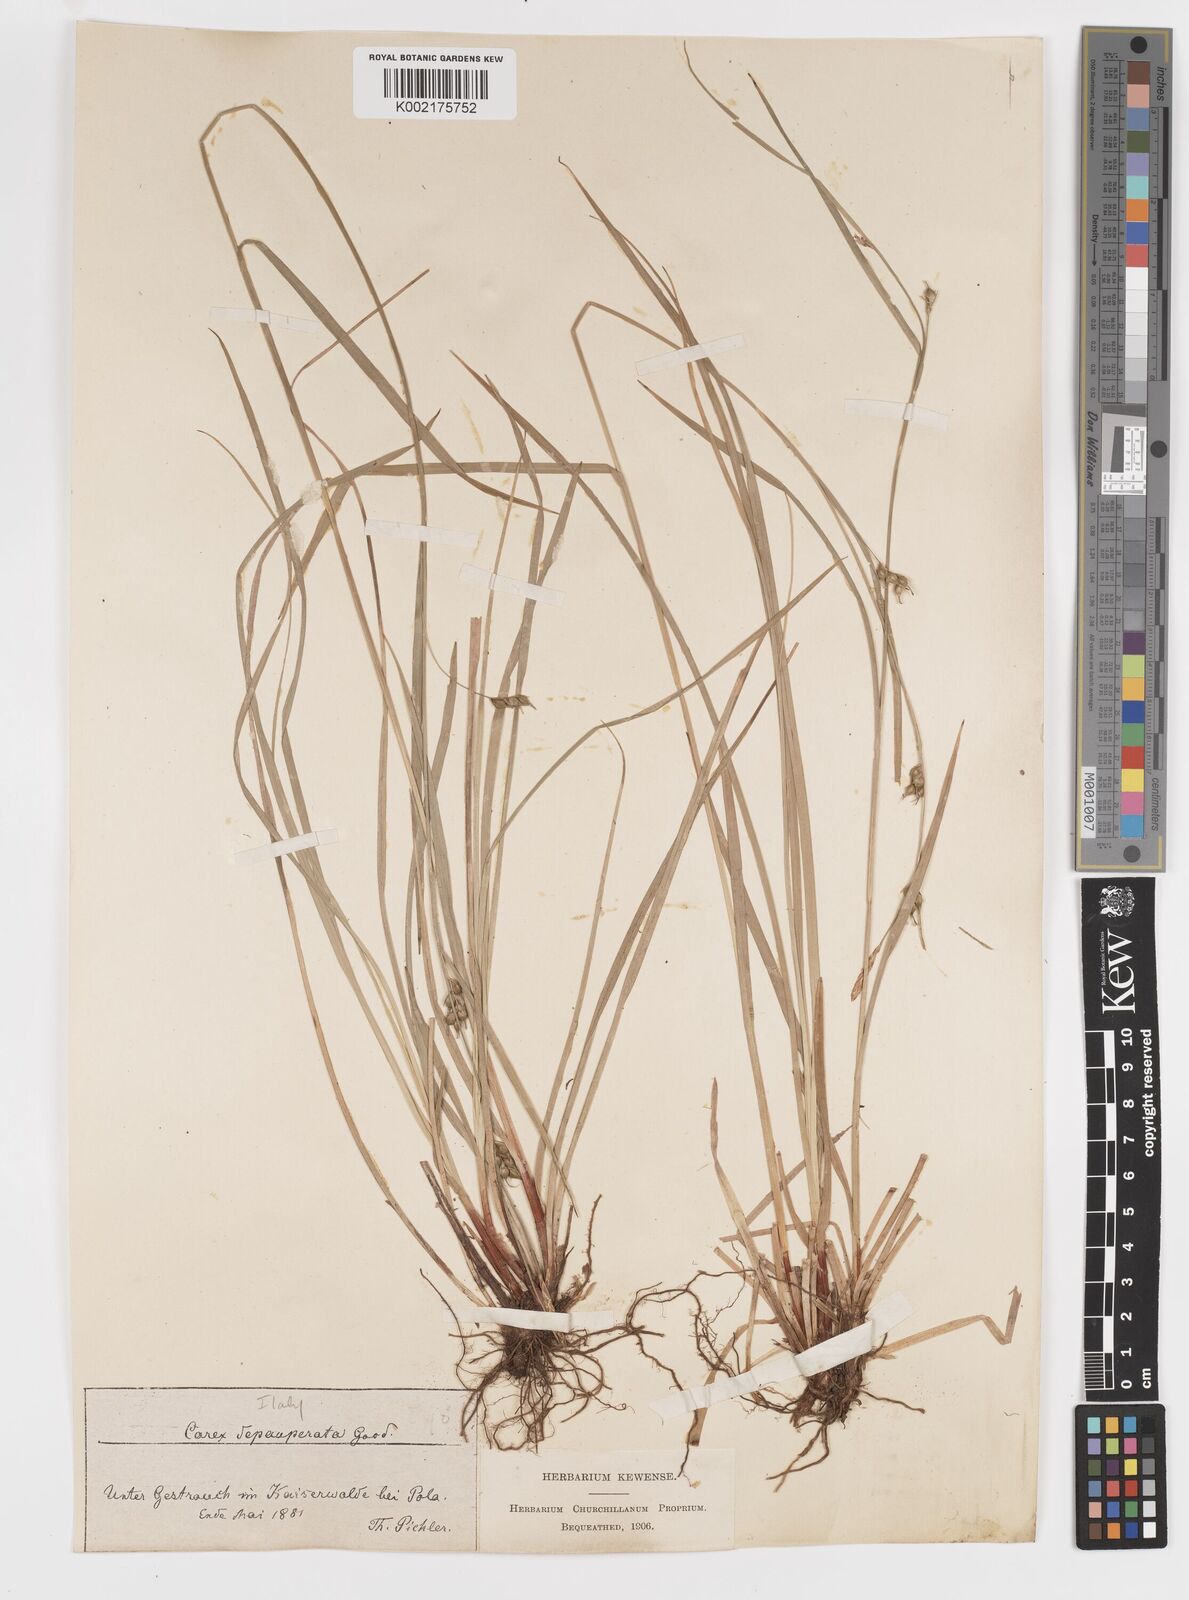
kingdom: Plantae
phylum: Tracheophyta
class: Liliopsida
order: Poales
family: Cyperaceae
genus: Carex
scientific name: Carex
